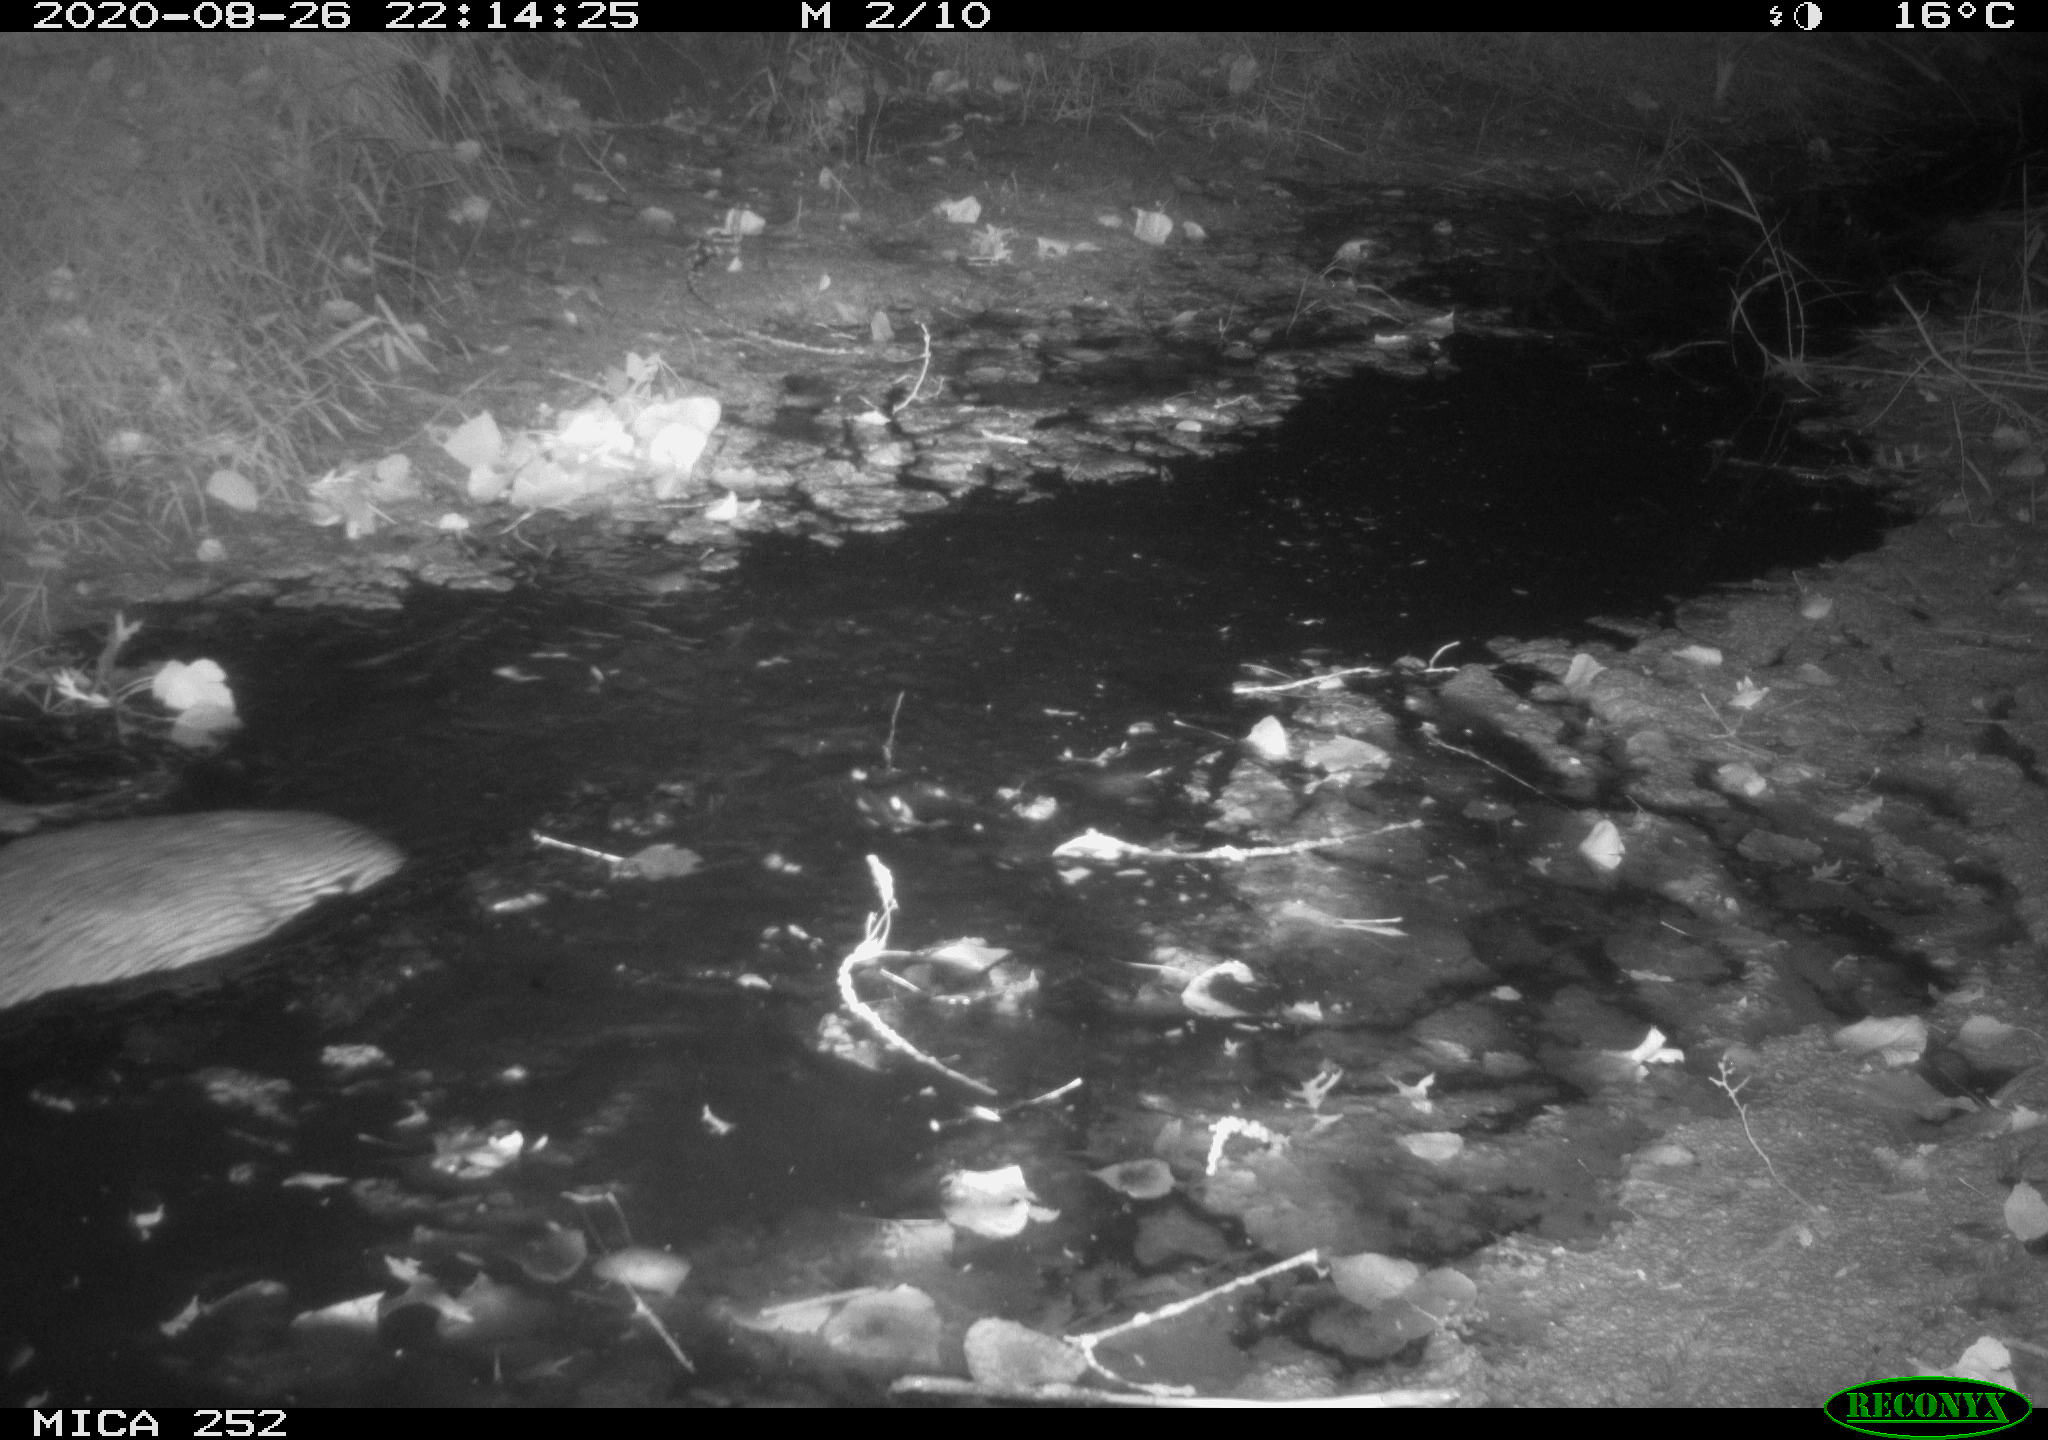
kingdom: Animalia
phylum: Chordata
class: Mammalia
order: Rodentia
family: Castoridae
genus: Castor
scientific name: Castor fiber
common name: Eurasian beaver
